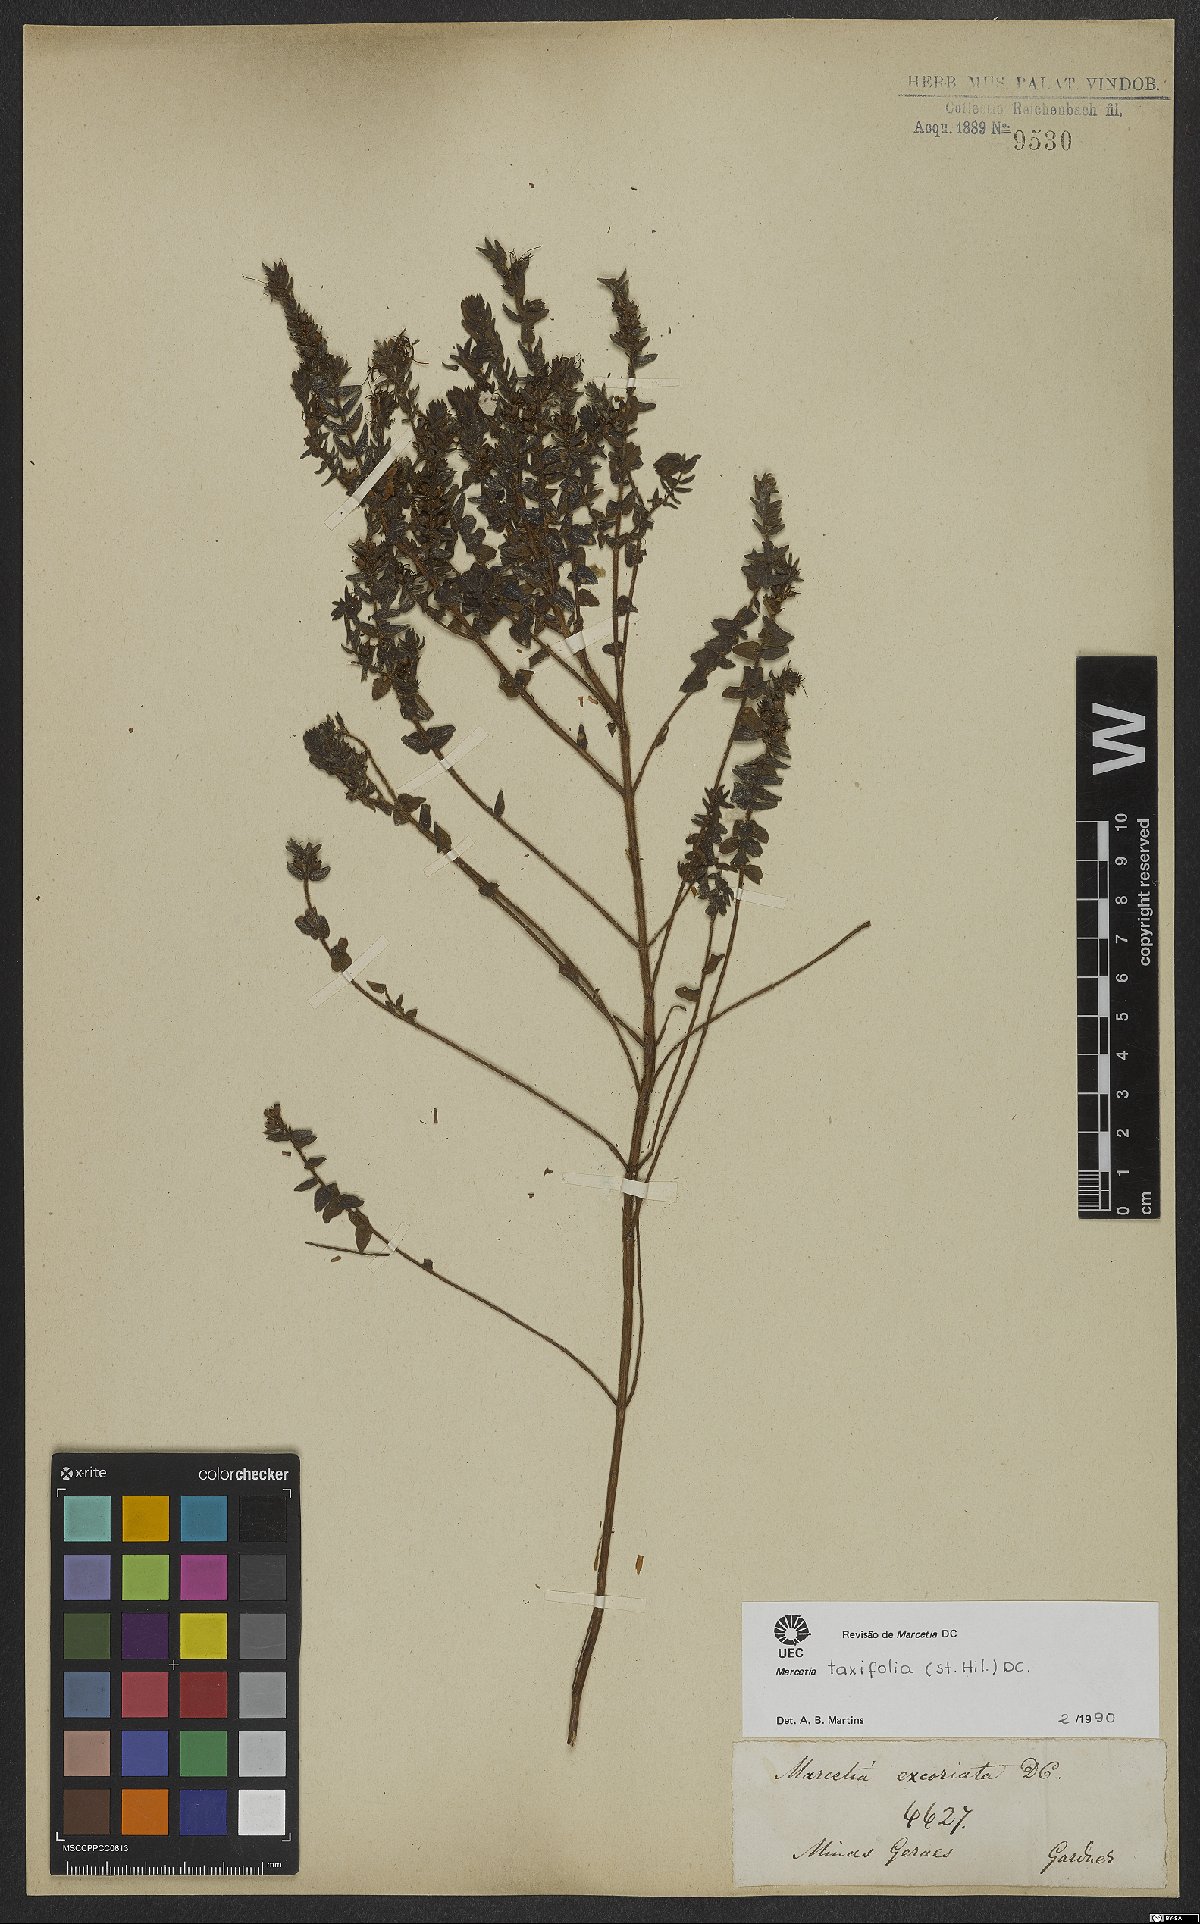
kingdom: Plantae
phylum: Tracheophyta
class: Magnoliopsida
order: Myrtales
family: Melastomataceae
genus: Marcetia
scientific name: Marcetia taxifolia
